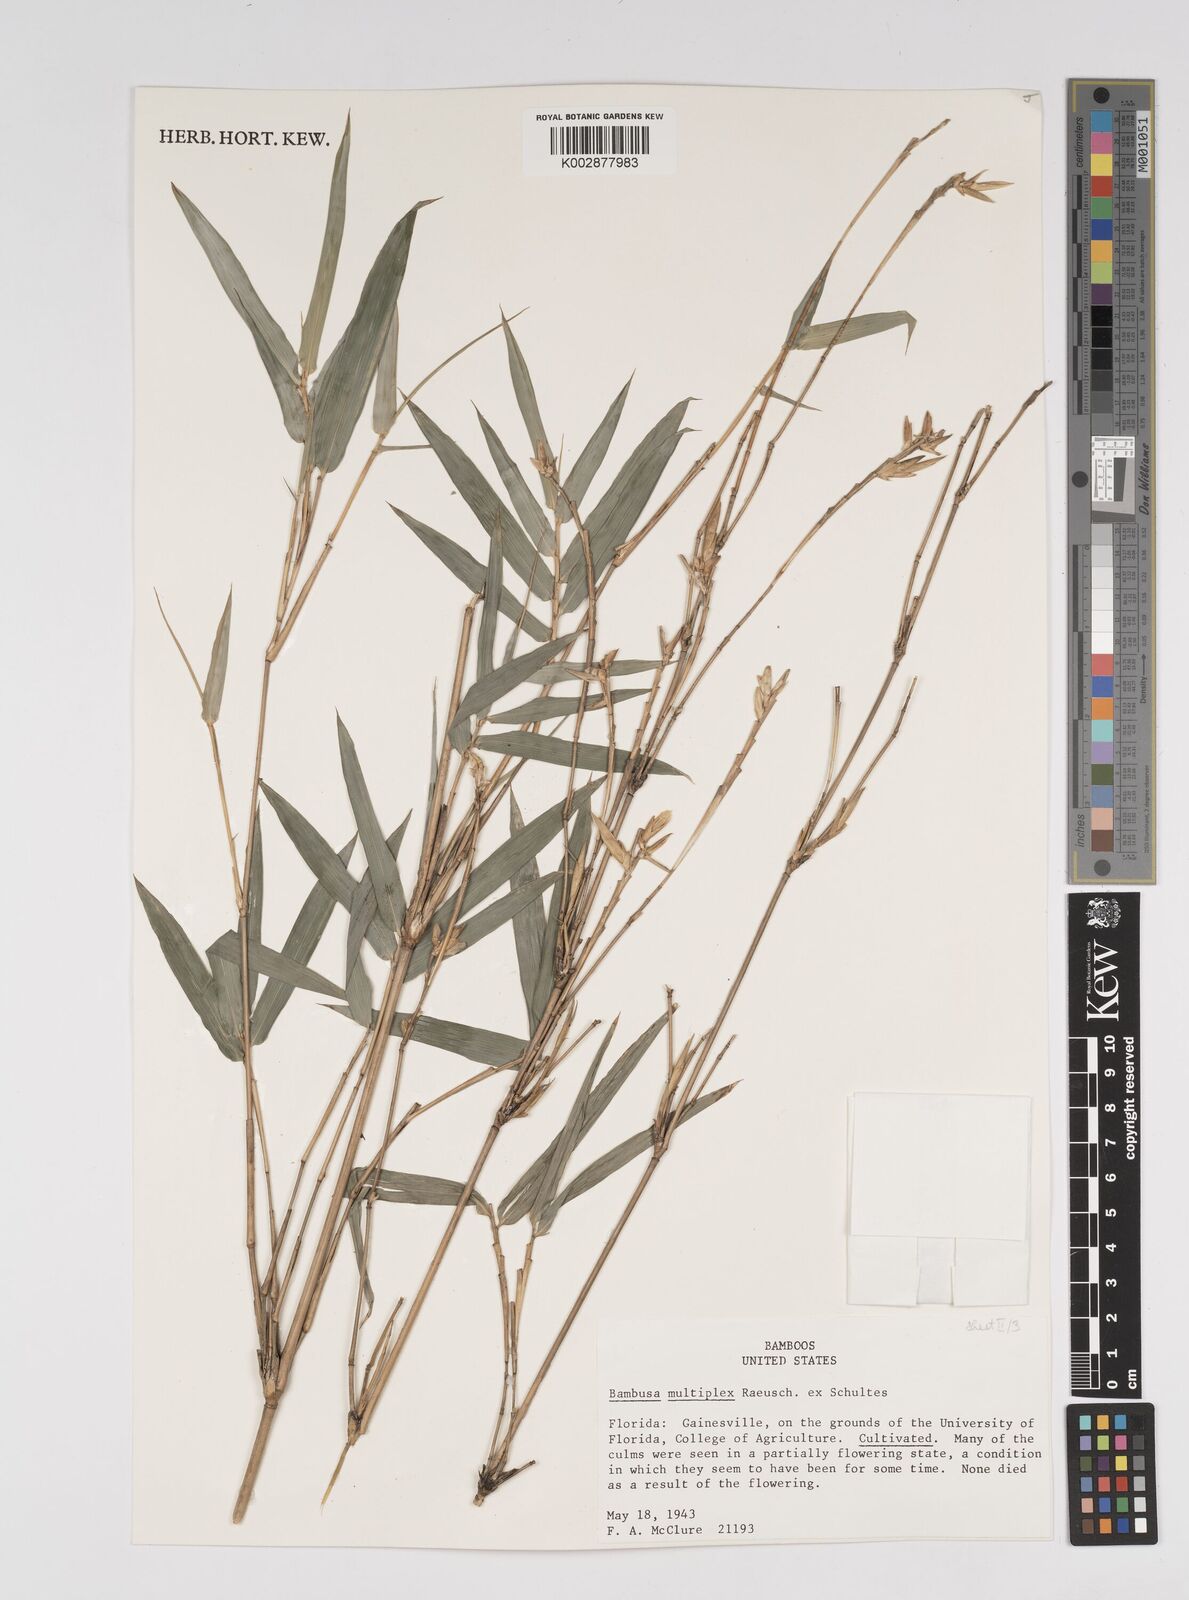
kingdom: Plantae
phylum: Tracheophyta
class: Liliopsida
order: Poales
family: Poaceae
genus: Bambusa
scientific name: Bambusa
